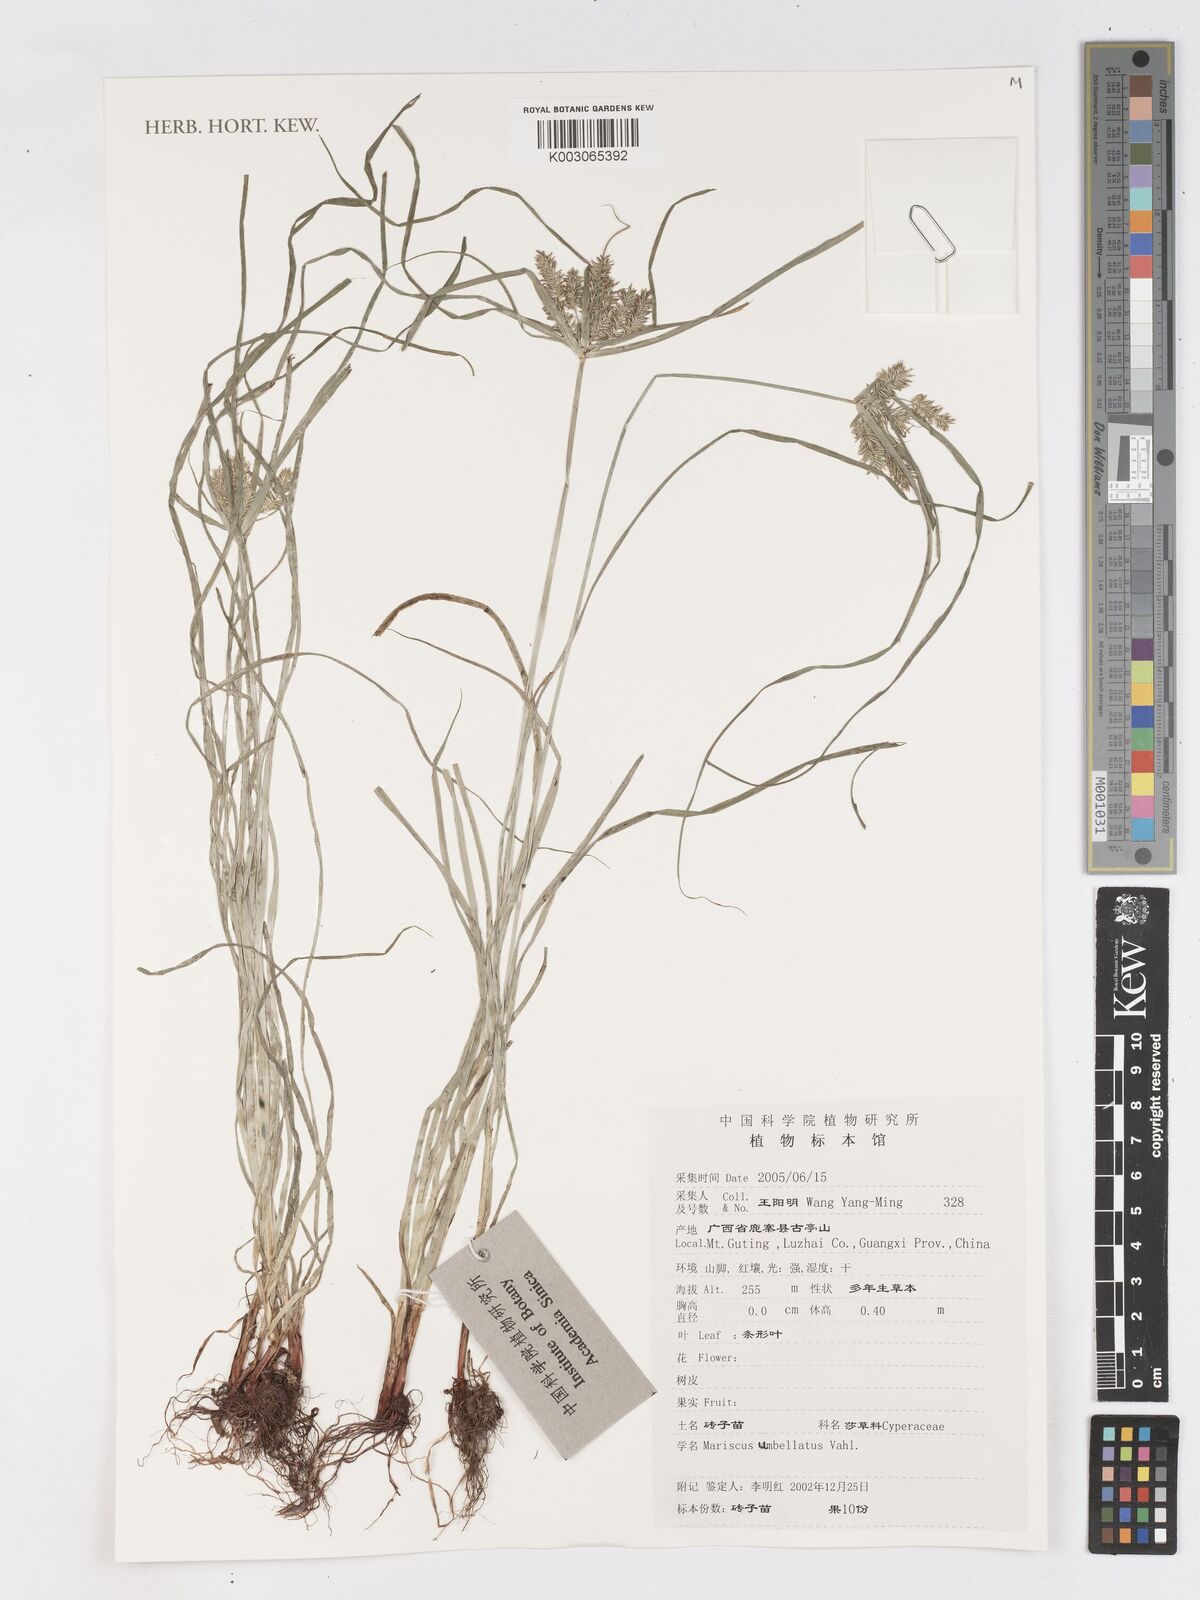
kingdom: Plantae
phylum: Tracheophyta
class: Liliopsida
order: Poales
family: Cyperaceae
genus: Cyperus
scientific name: Cyperus cyperoides
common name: Pacific island flat sedge
